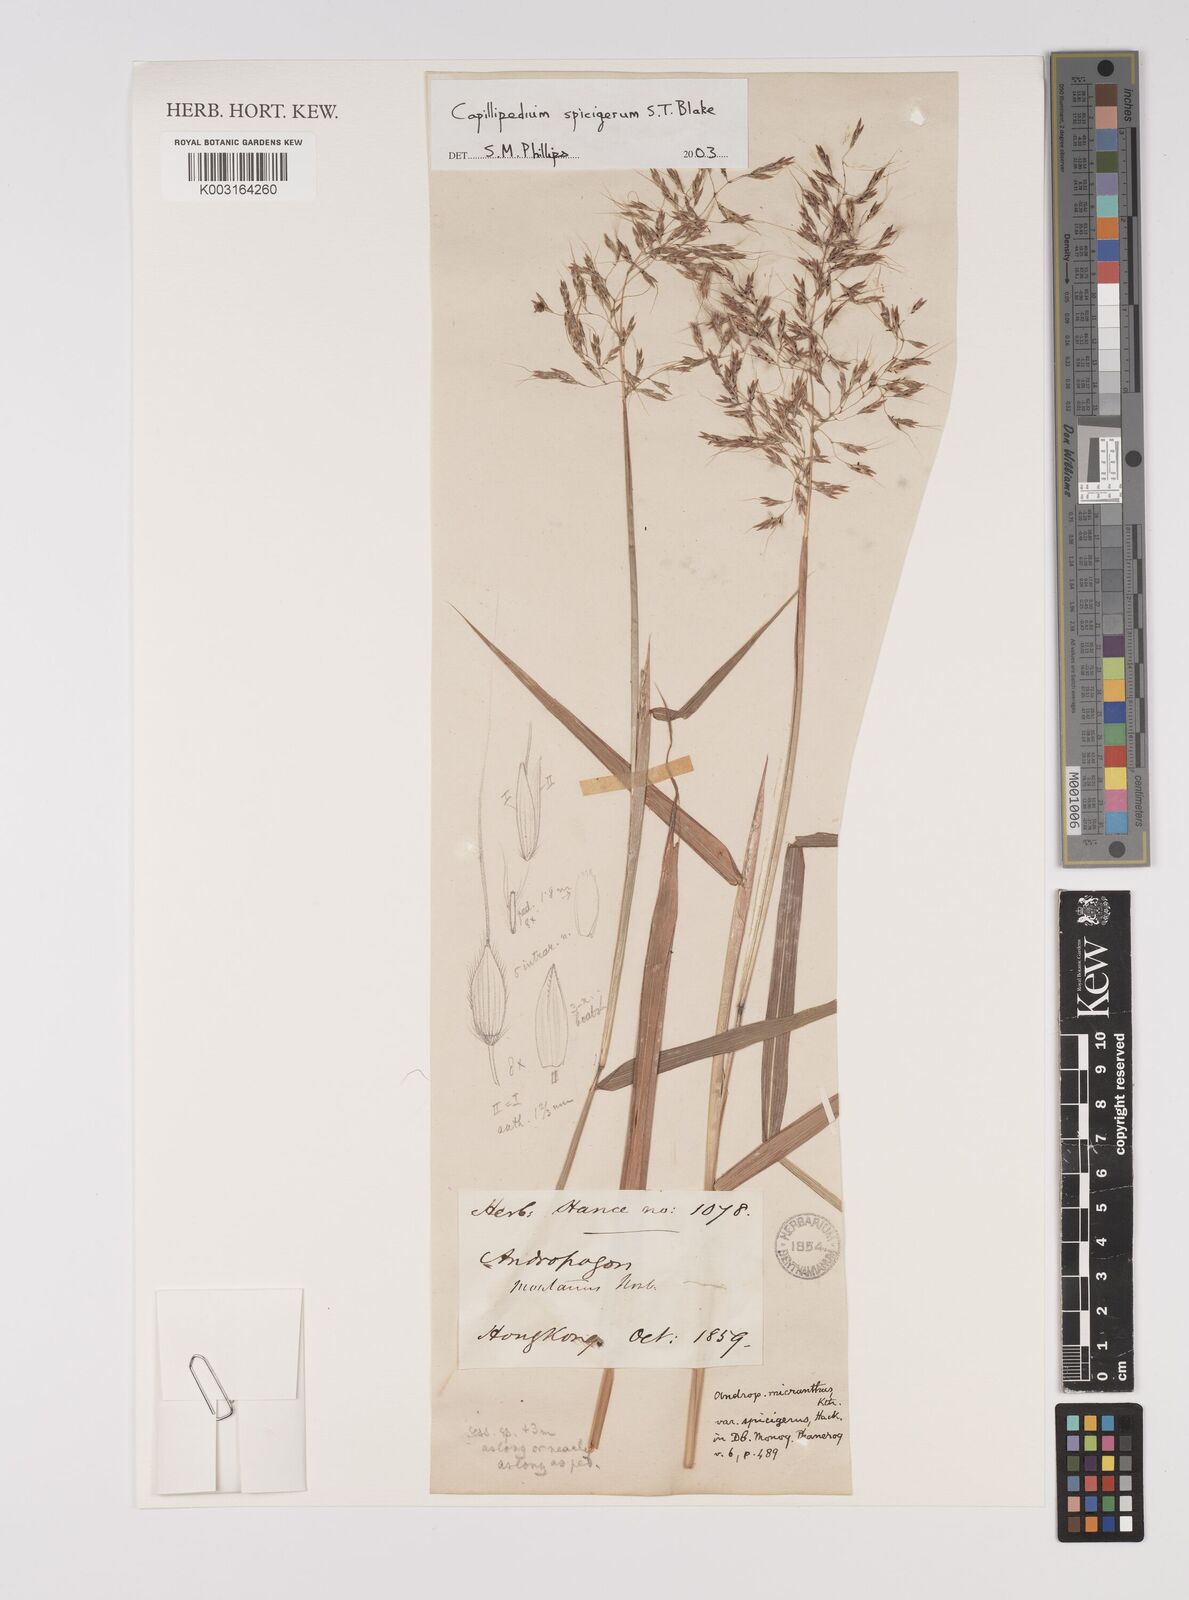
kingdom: Plantae
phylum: Tracheophyta
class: Liliopsida
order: Poales
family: Poaceae
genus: Capillipedium
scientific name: Capillipedium spicigerum
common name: Scented-top grass
